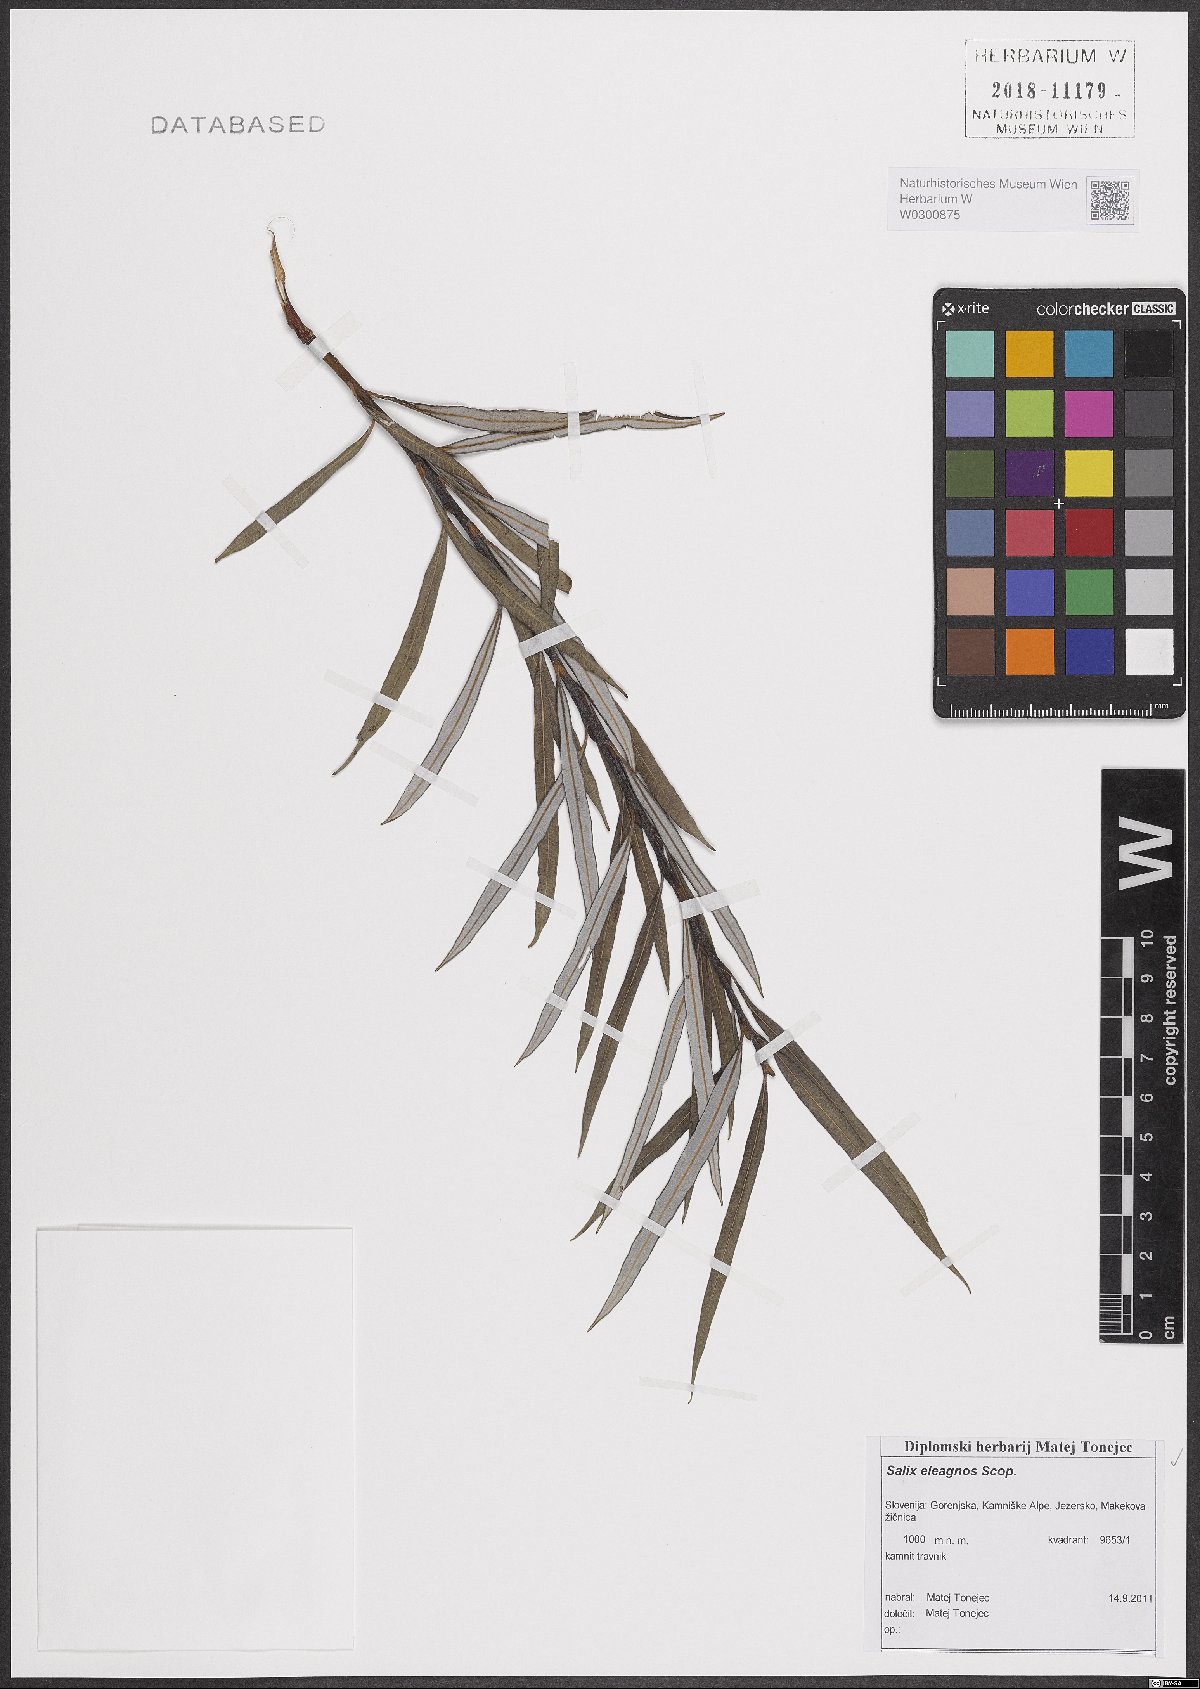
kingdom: Plantae
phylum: Tracheophyta
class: Magnoliopsida
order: Malpighiales
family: Salicaceae
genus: Salix
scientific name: Salix eleagnos
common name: Elaeagnus willow
